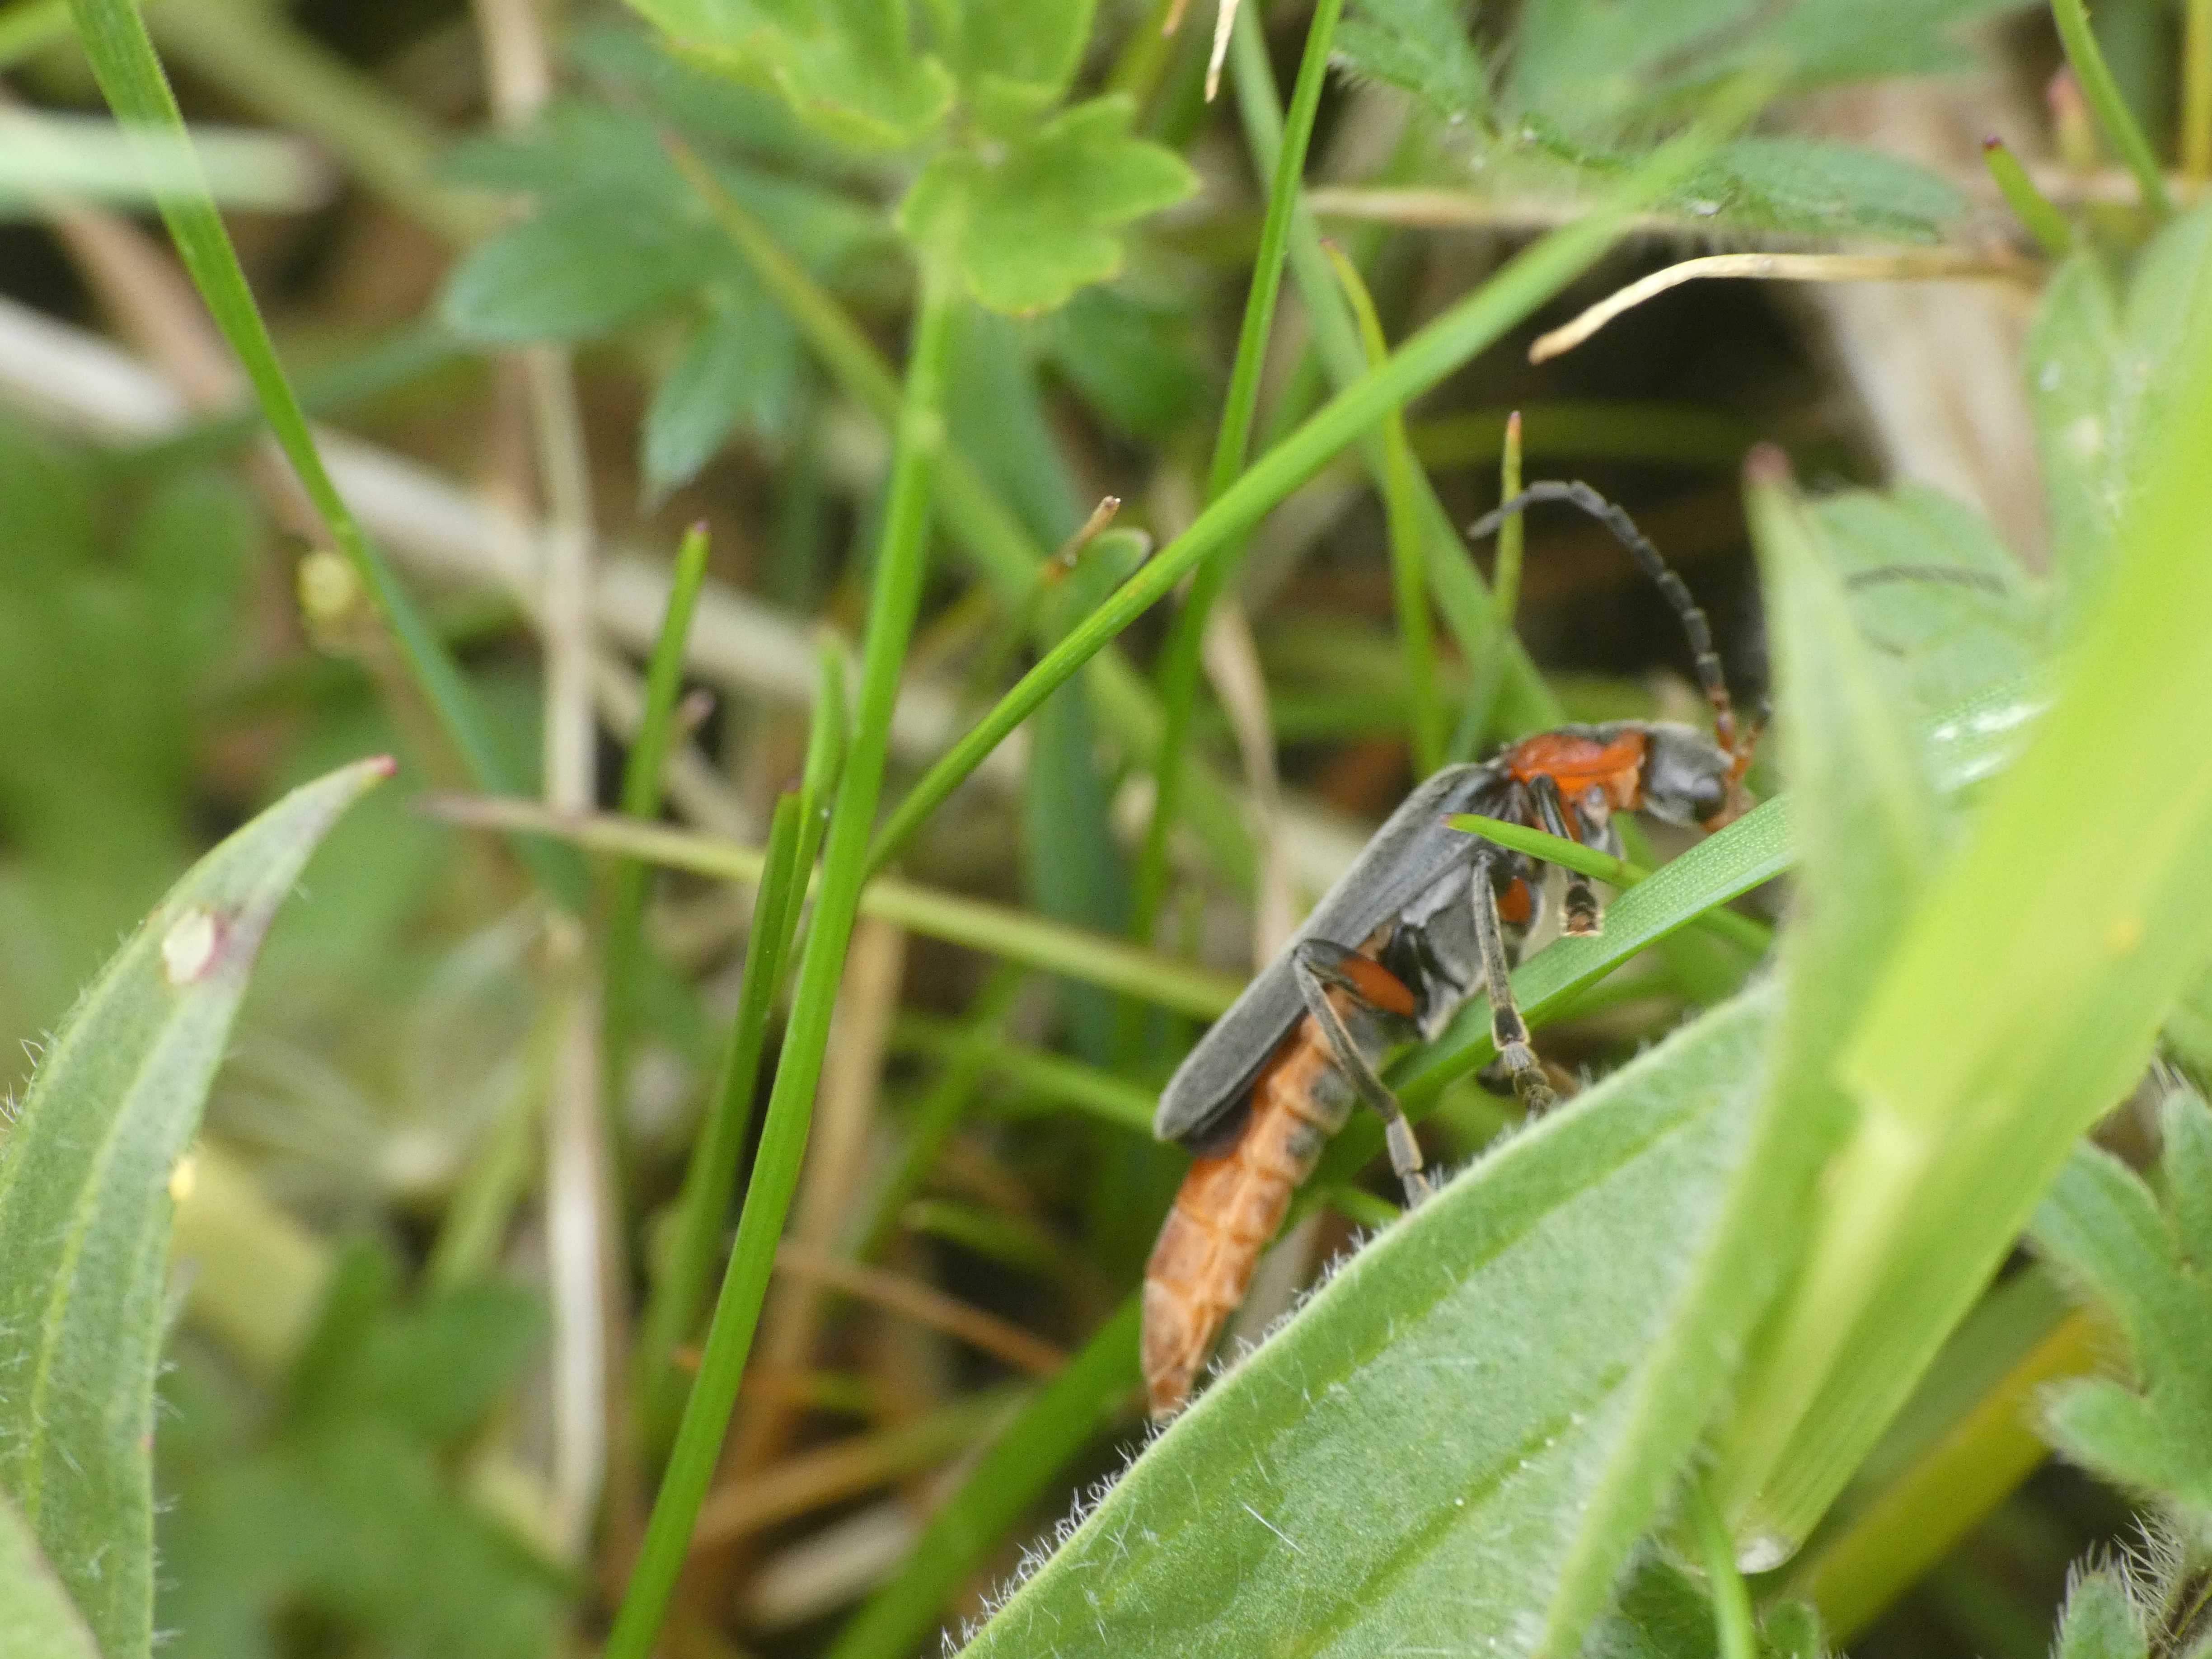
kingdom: Animalia
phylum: Arthropoda
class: Insecta
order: Coleoptera
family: Cantharidae
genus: Cantharis
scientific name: Cantharis rustica
